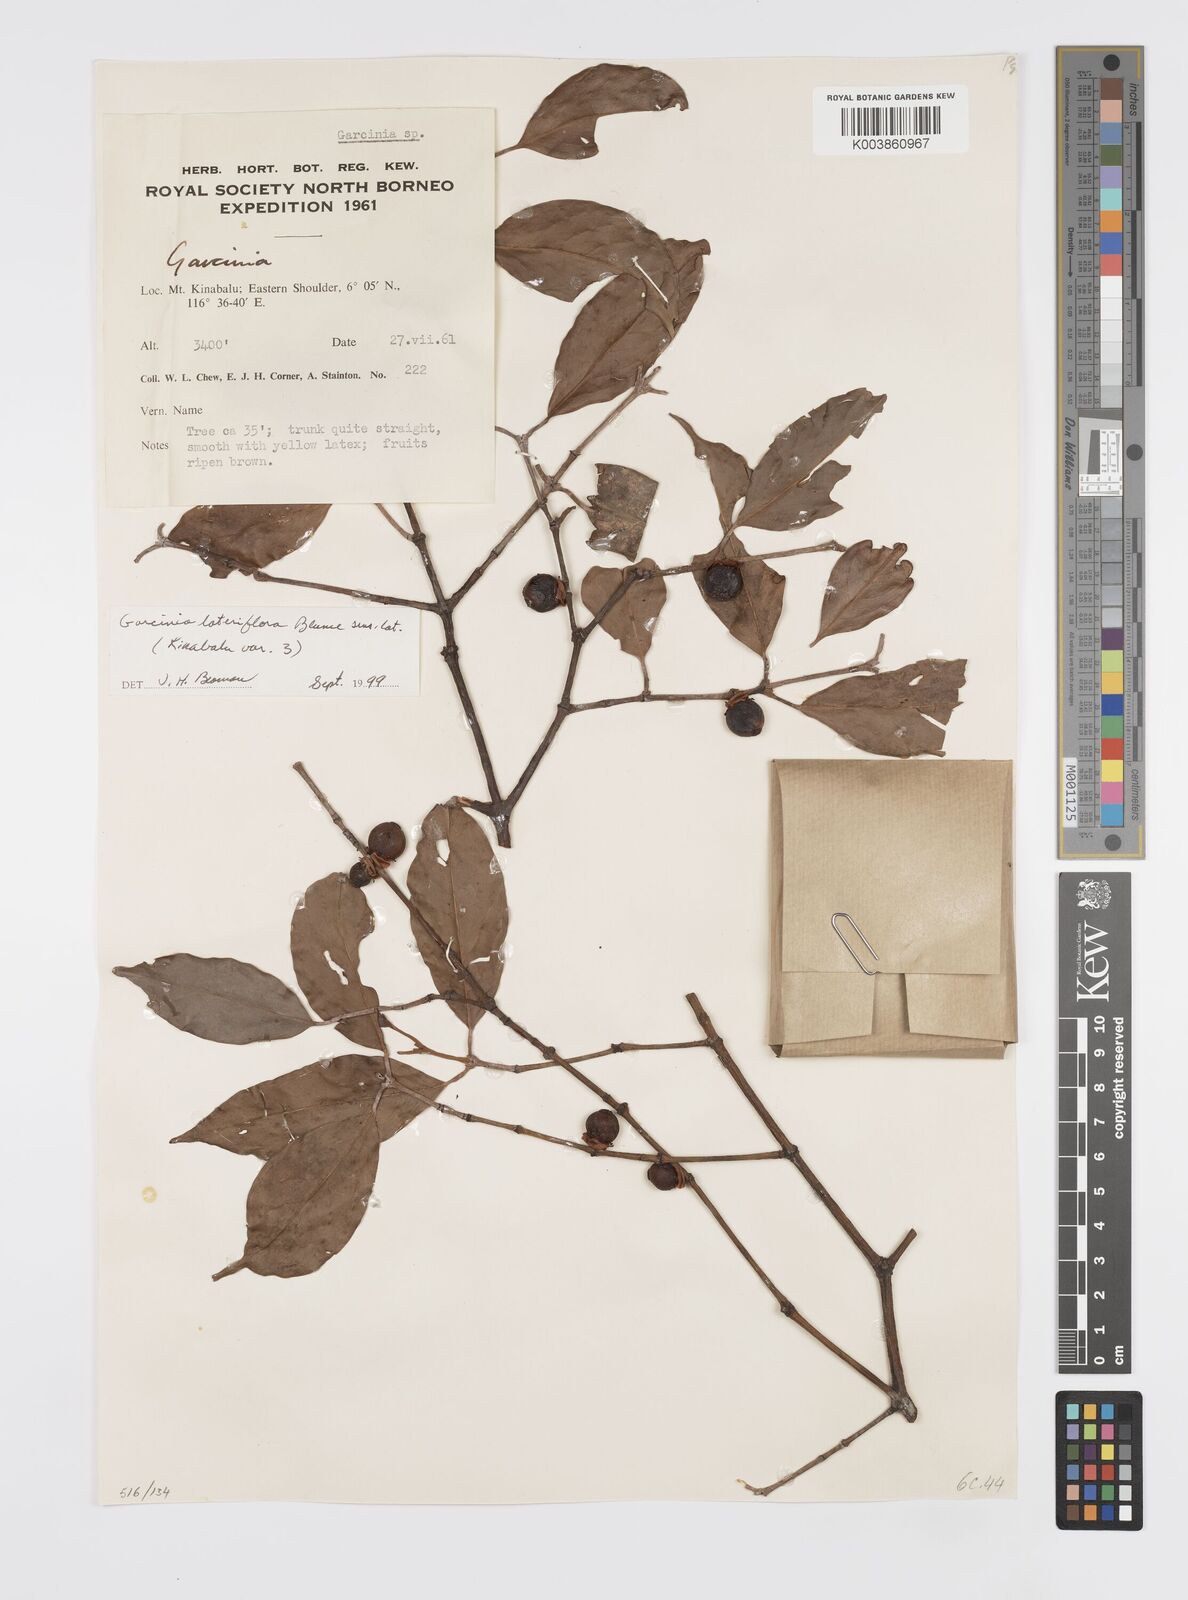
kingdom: Plantae
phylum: Tracheophyta
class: Magnoliopsida
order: Malpighiales
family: Clusiaceae
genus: Garcinia
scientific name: Garcinia lateriflora
